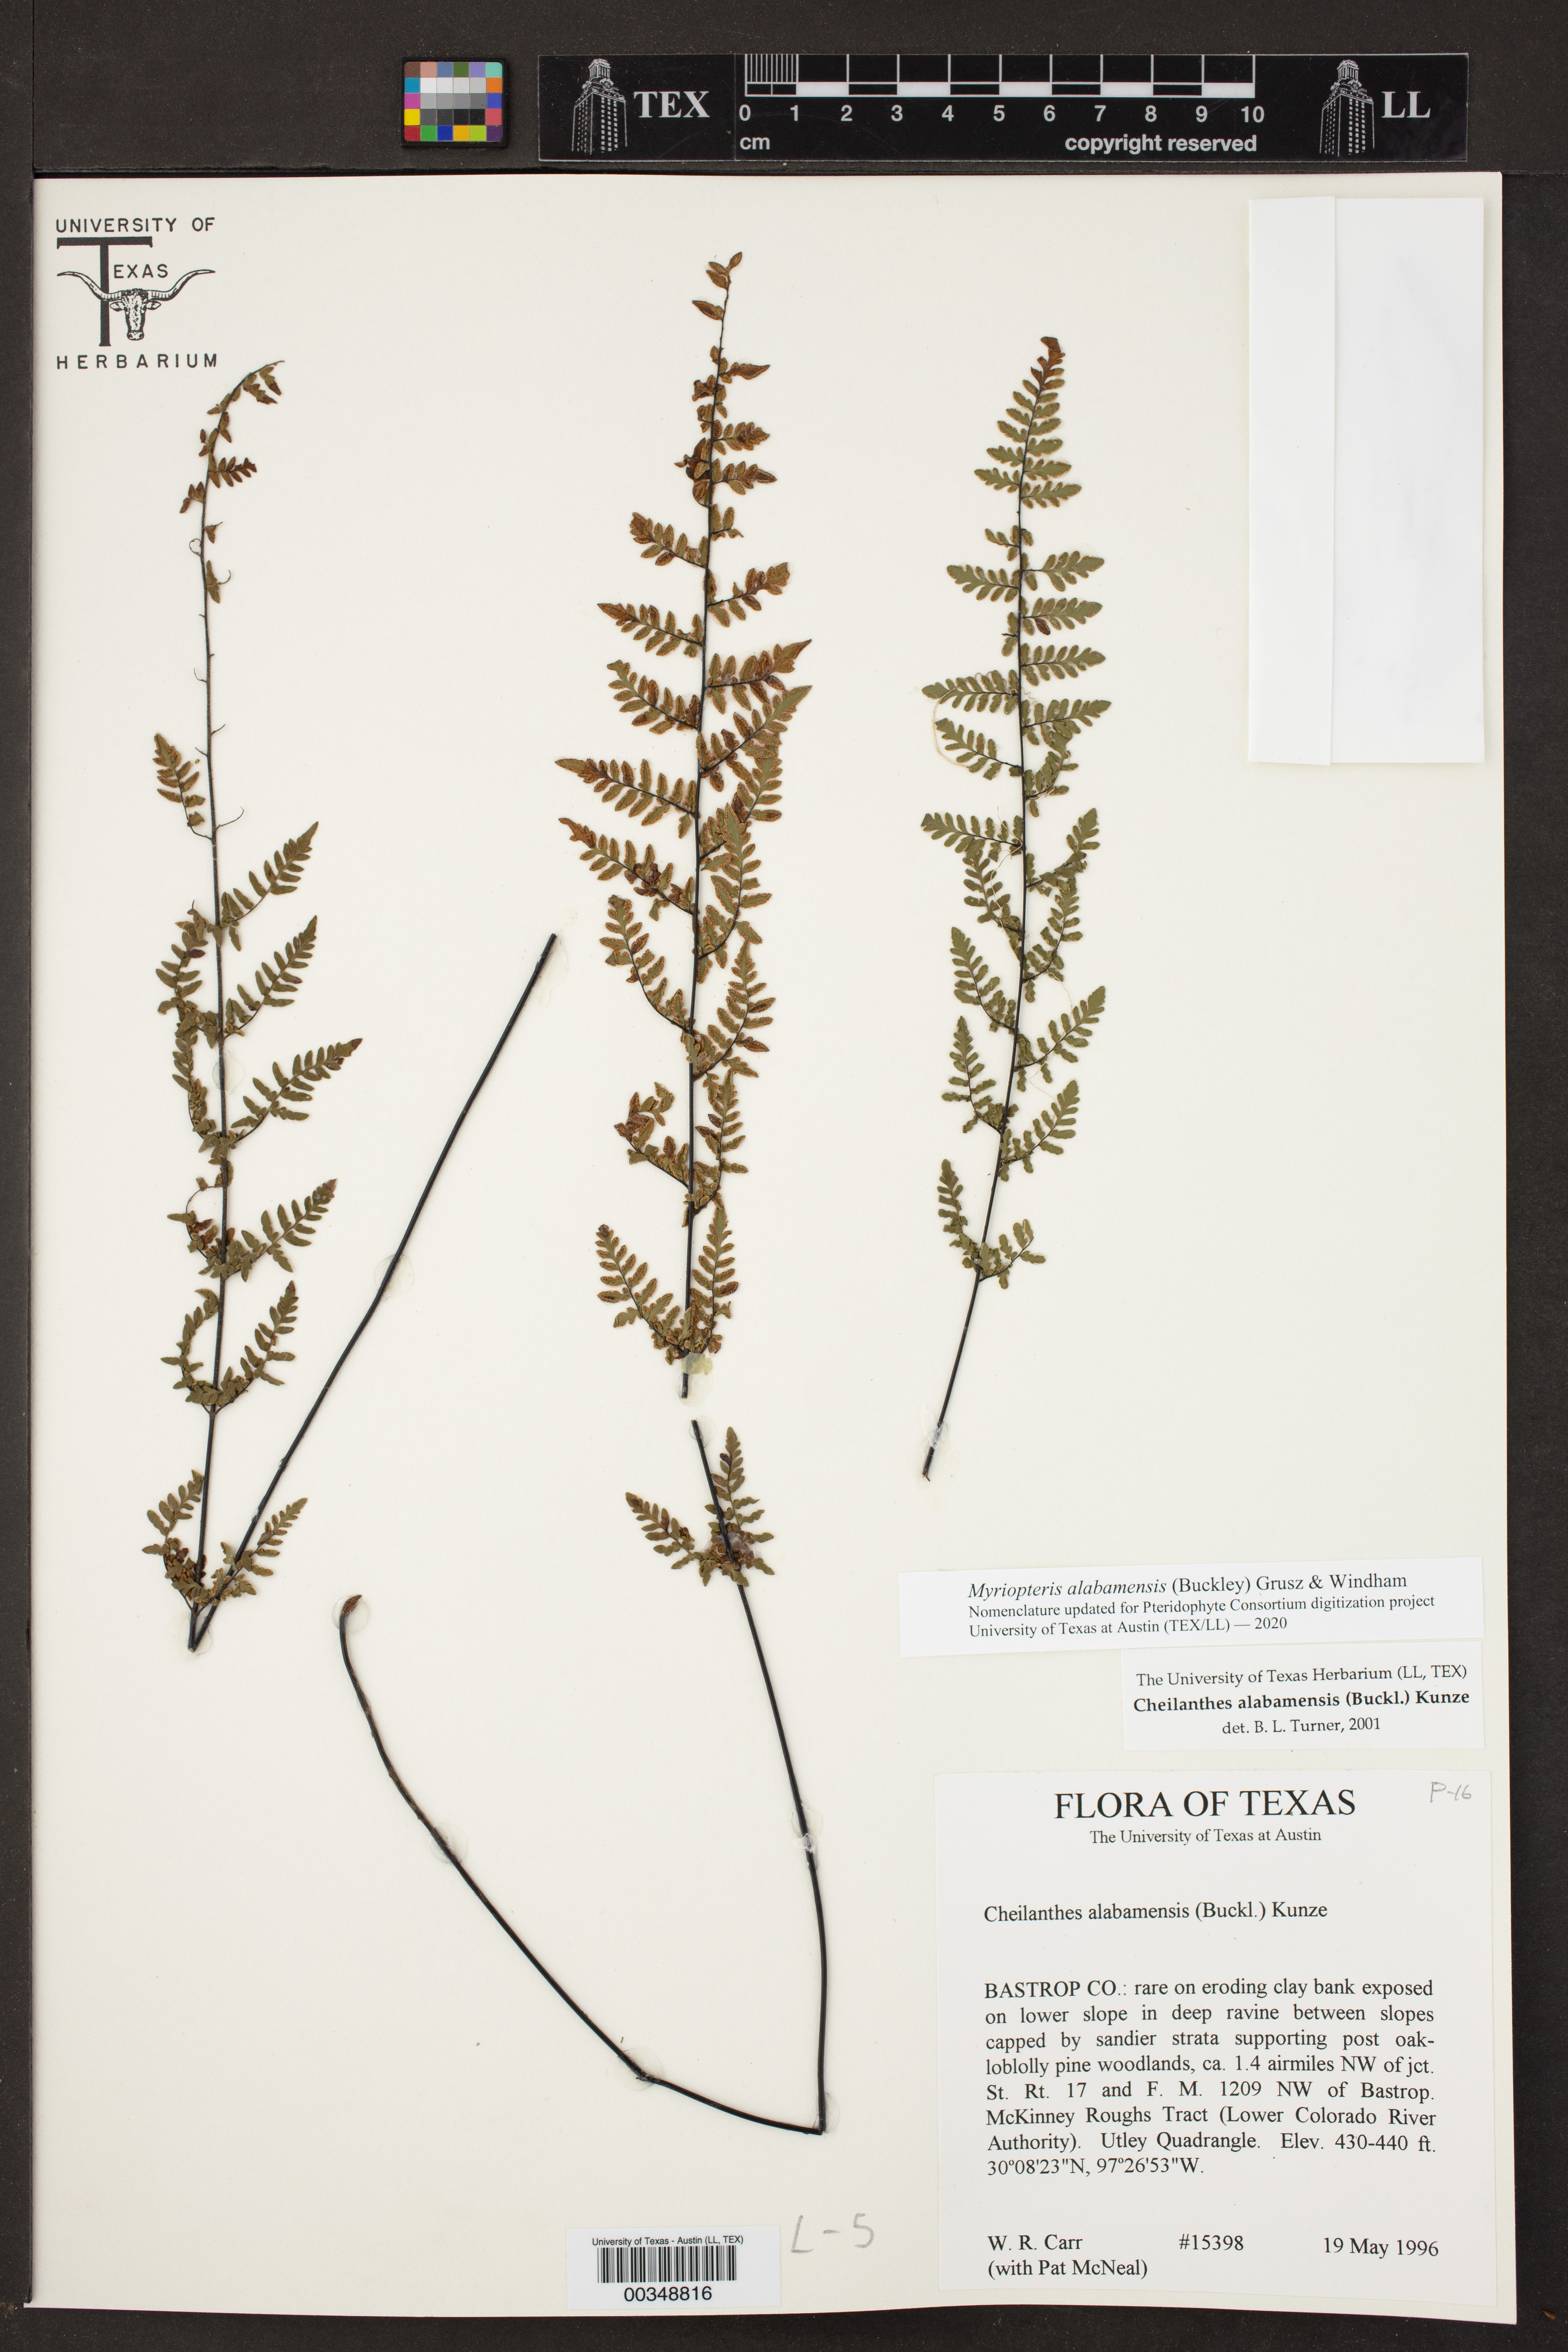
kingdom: Plantae
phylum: Tracheophyta
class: Polypodiopsida
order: Polypodiales
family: Pteridaceae
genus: Myriopteris
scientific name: Myriopteris alabamensis
